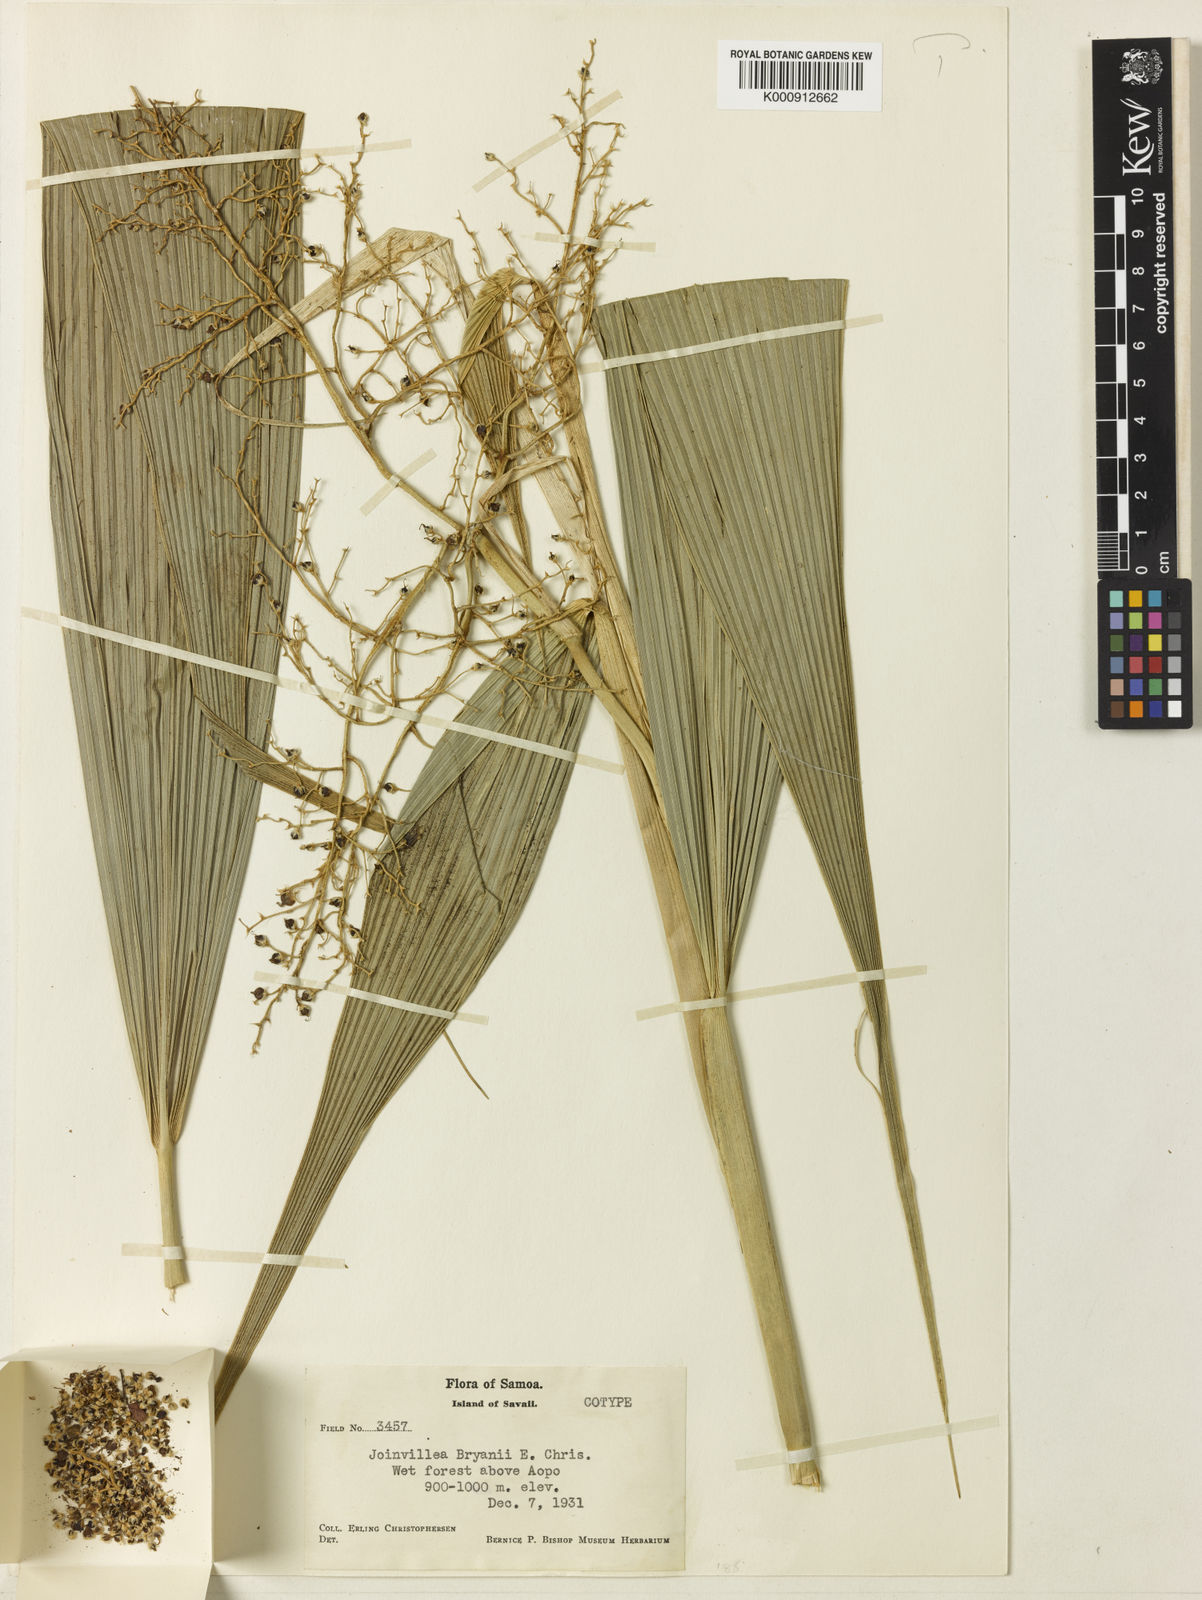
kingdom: Plantae
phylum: Tracheophyta
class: Liliopsida
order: Poales
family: Joinvilleaceae
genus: Joinvillea
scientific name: Joinvillea plicata
